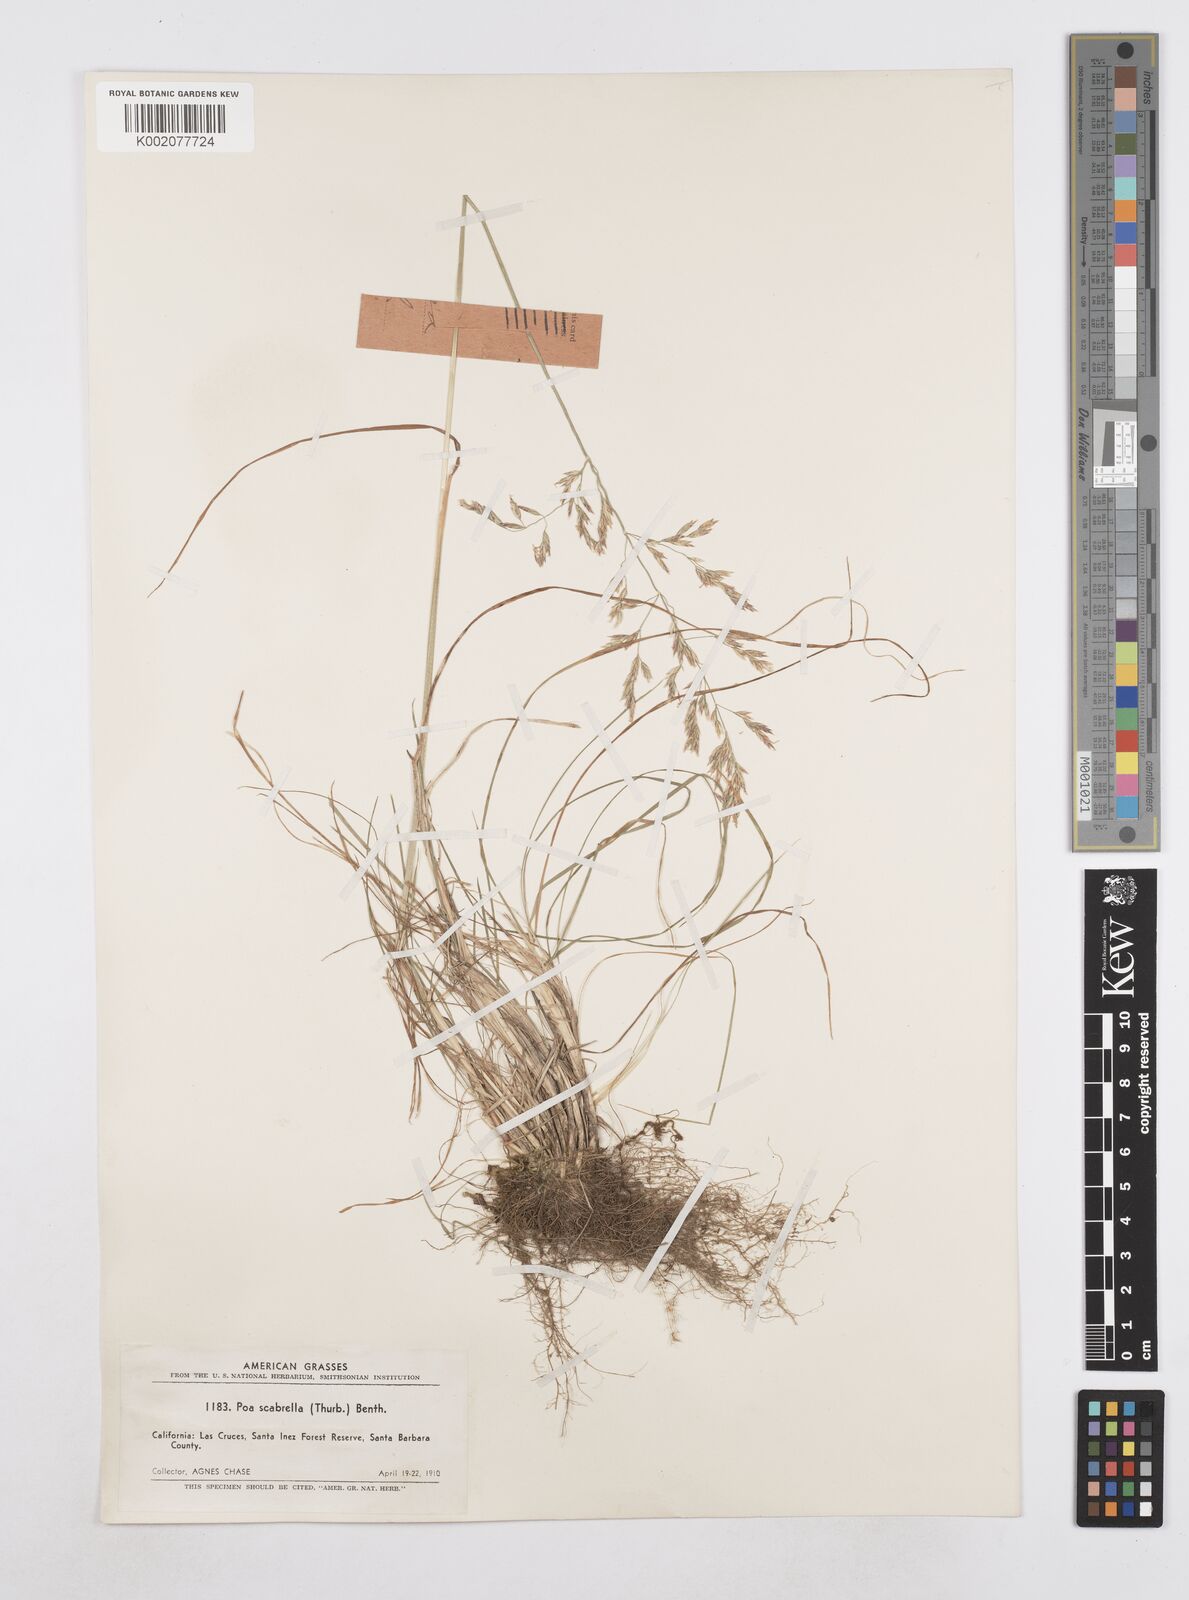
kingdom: Plantae
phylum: Tracheophyta
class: Liliopsida
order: Poales
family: Poaceae
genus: Poa
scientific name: Poa secunda
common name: Sandberg bluegrass
